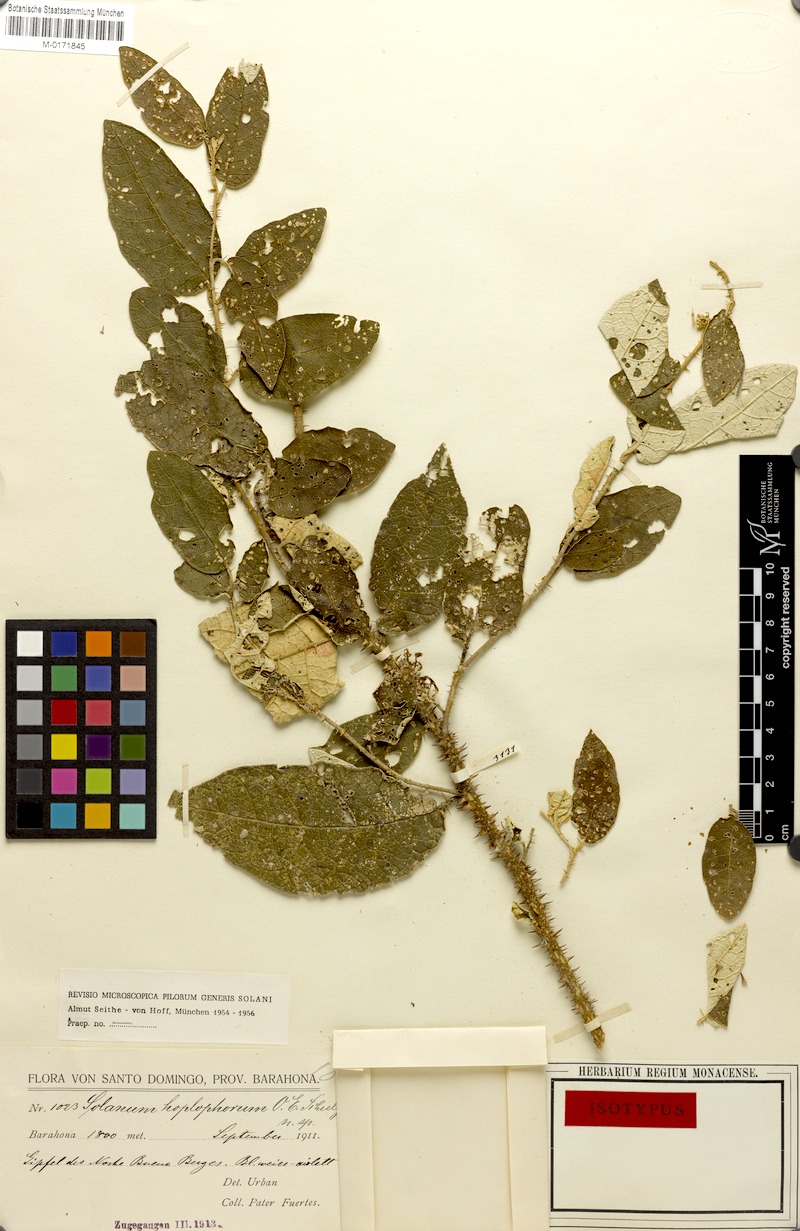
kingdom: Plantae
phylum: Tracheophyta
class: Magnoliopsida
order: Solanales
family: Solanaceae
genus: Solanum
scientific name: Solanum crotonoides
